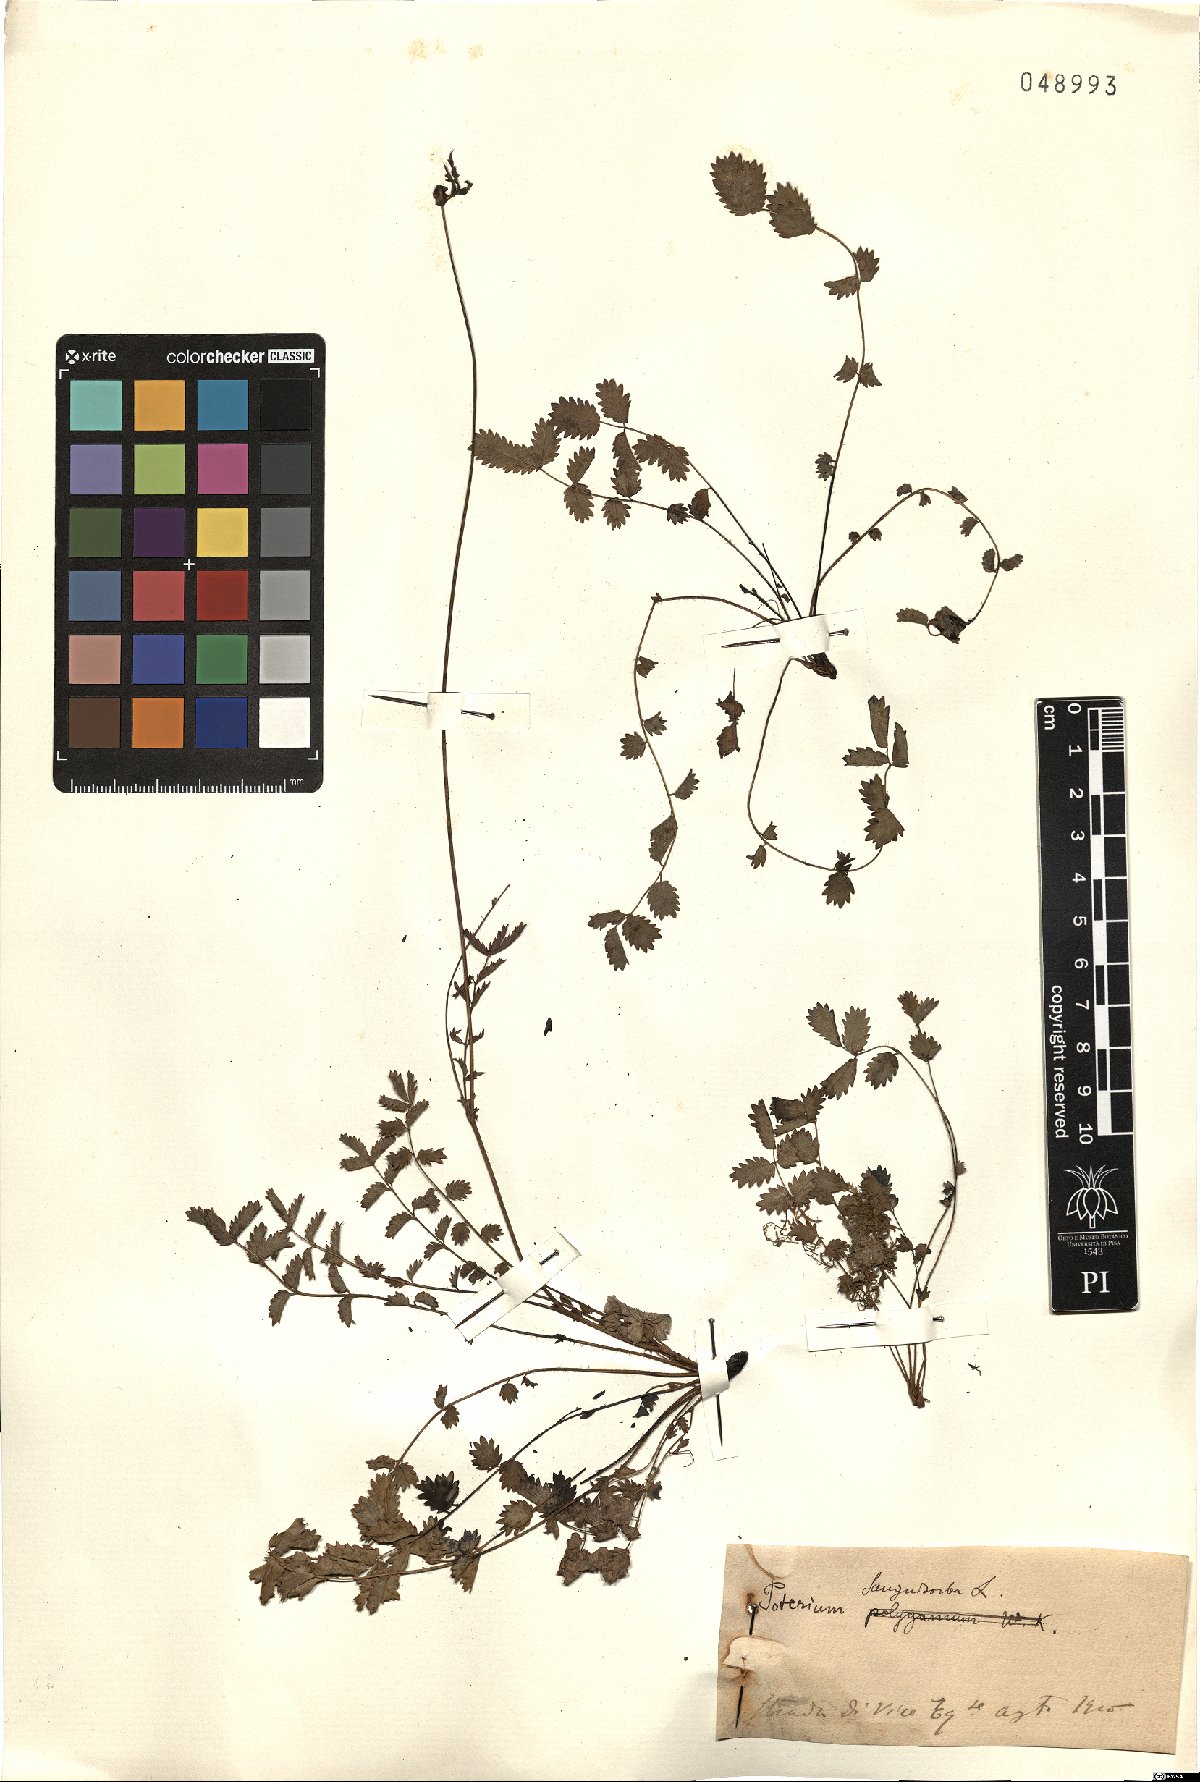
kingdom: Plantae
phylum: Tracheophyta
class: Magnoliopsida
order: Rosales
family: Rosaceae
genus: Poterium
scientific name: Poterium sanguisorba
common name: Salad burnet
